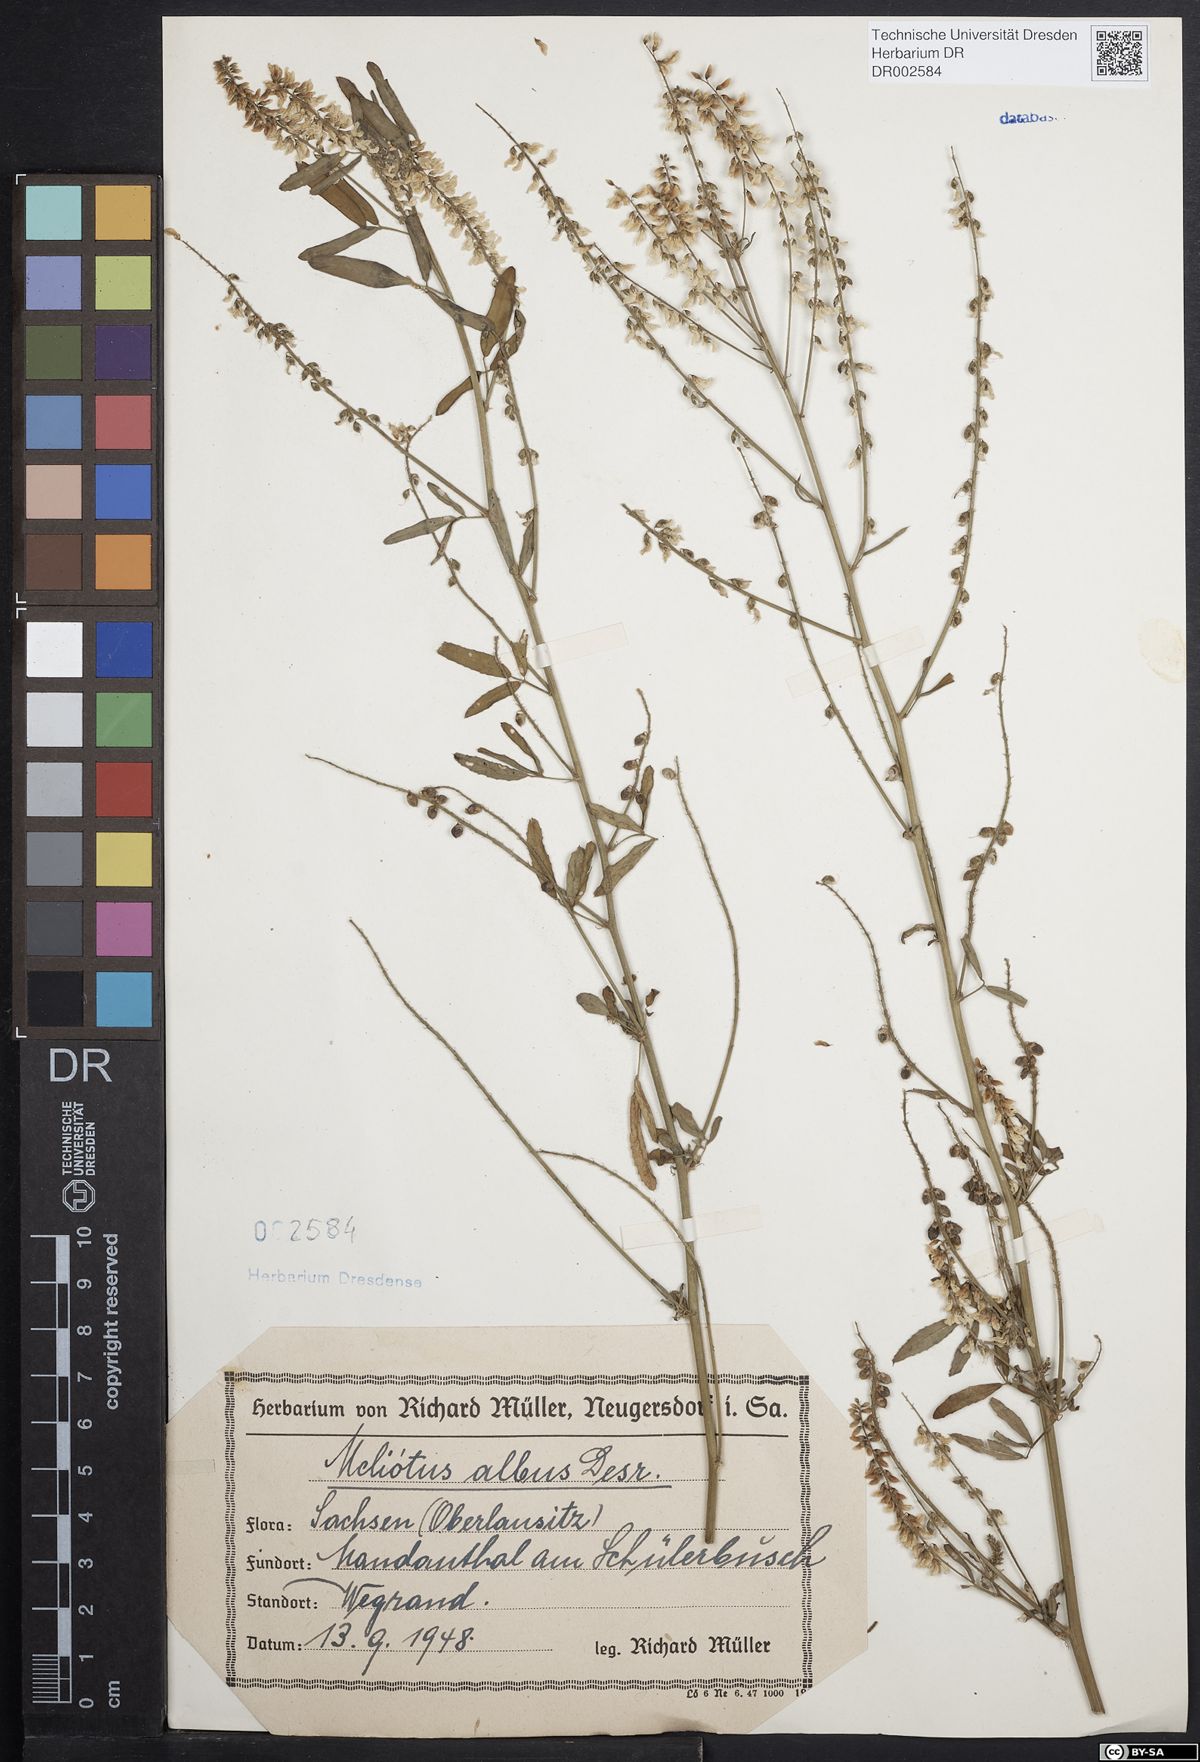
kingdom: Plantae
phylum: Tracheophyta
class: Magnoliopsida
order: Fabales
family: Fabaceae
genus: Melilotus
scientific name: Melilotus albus
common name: White melilot
